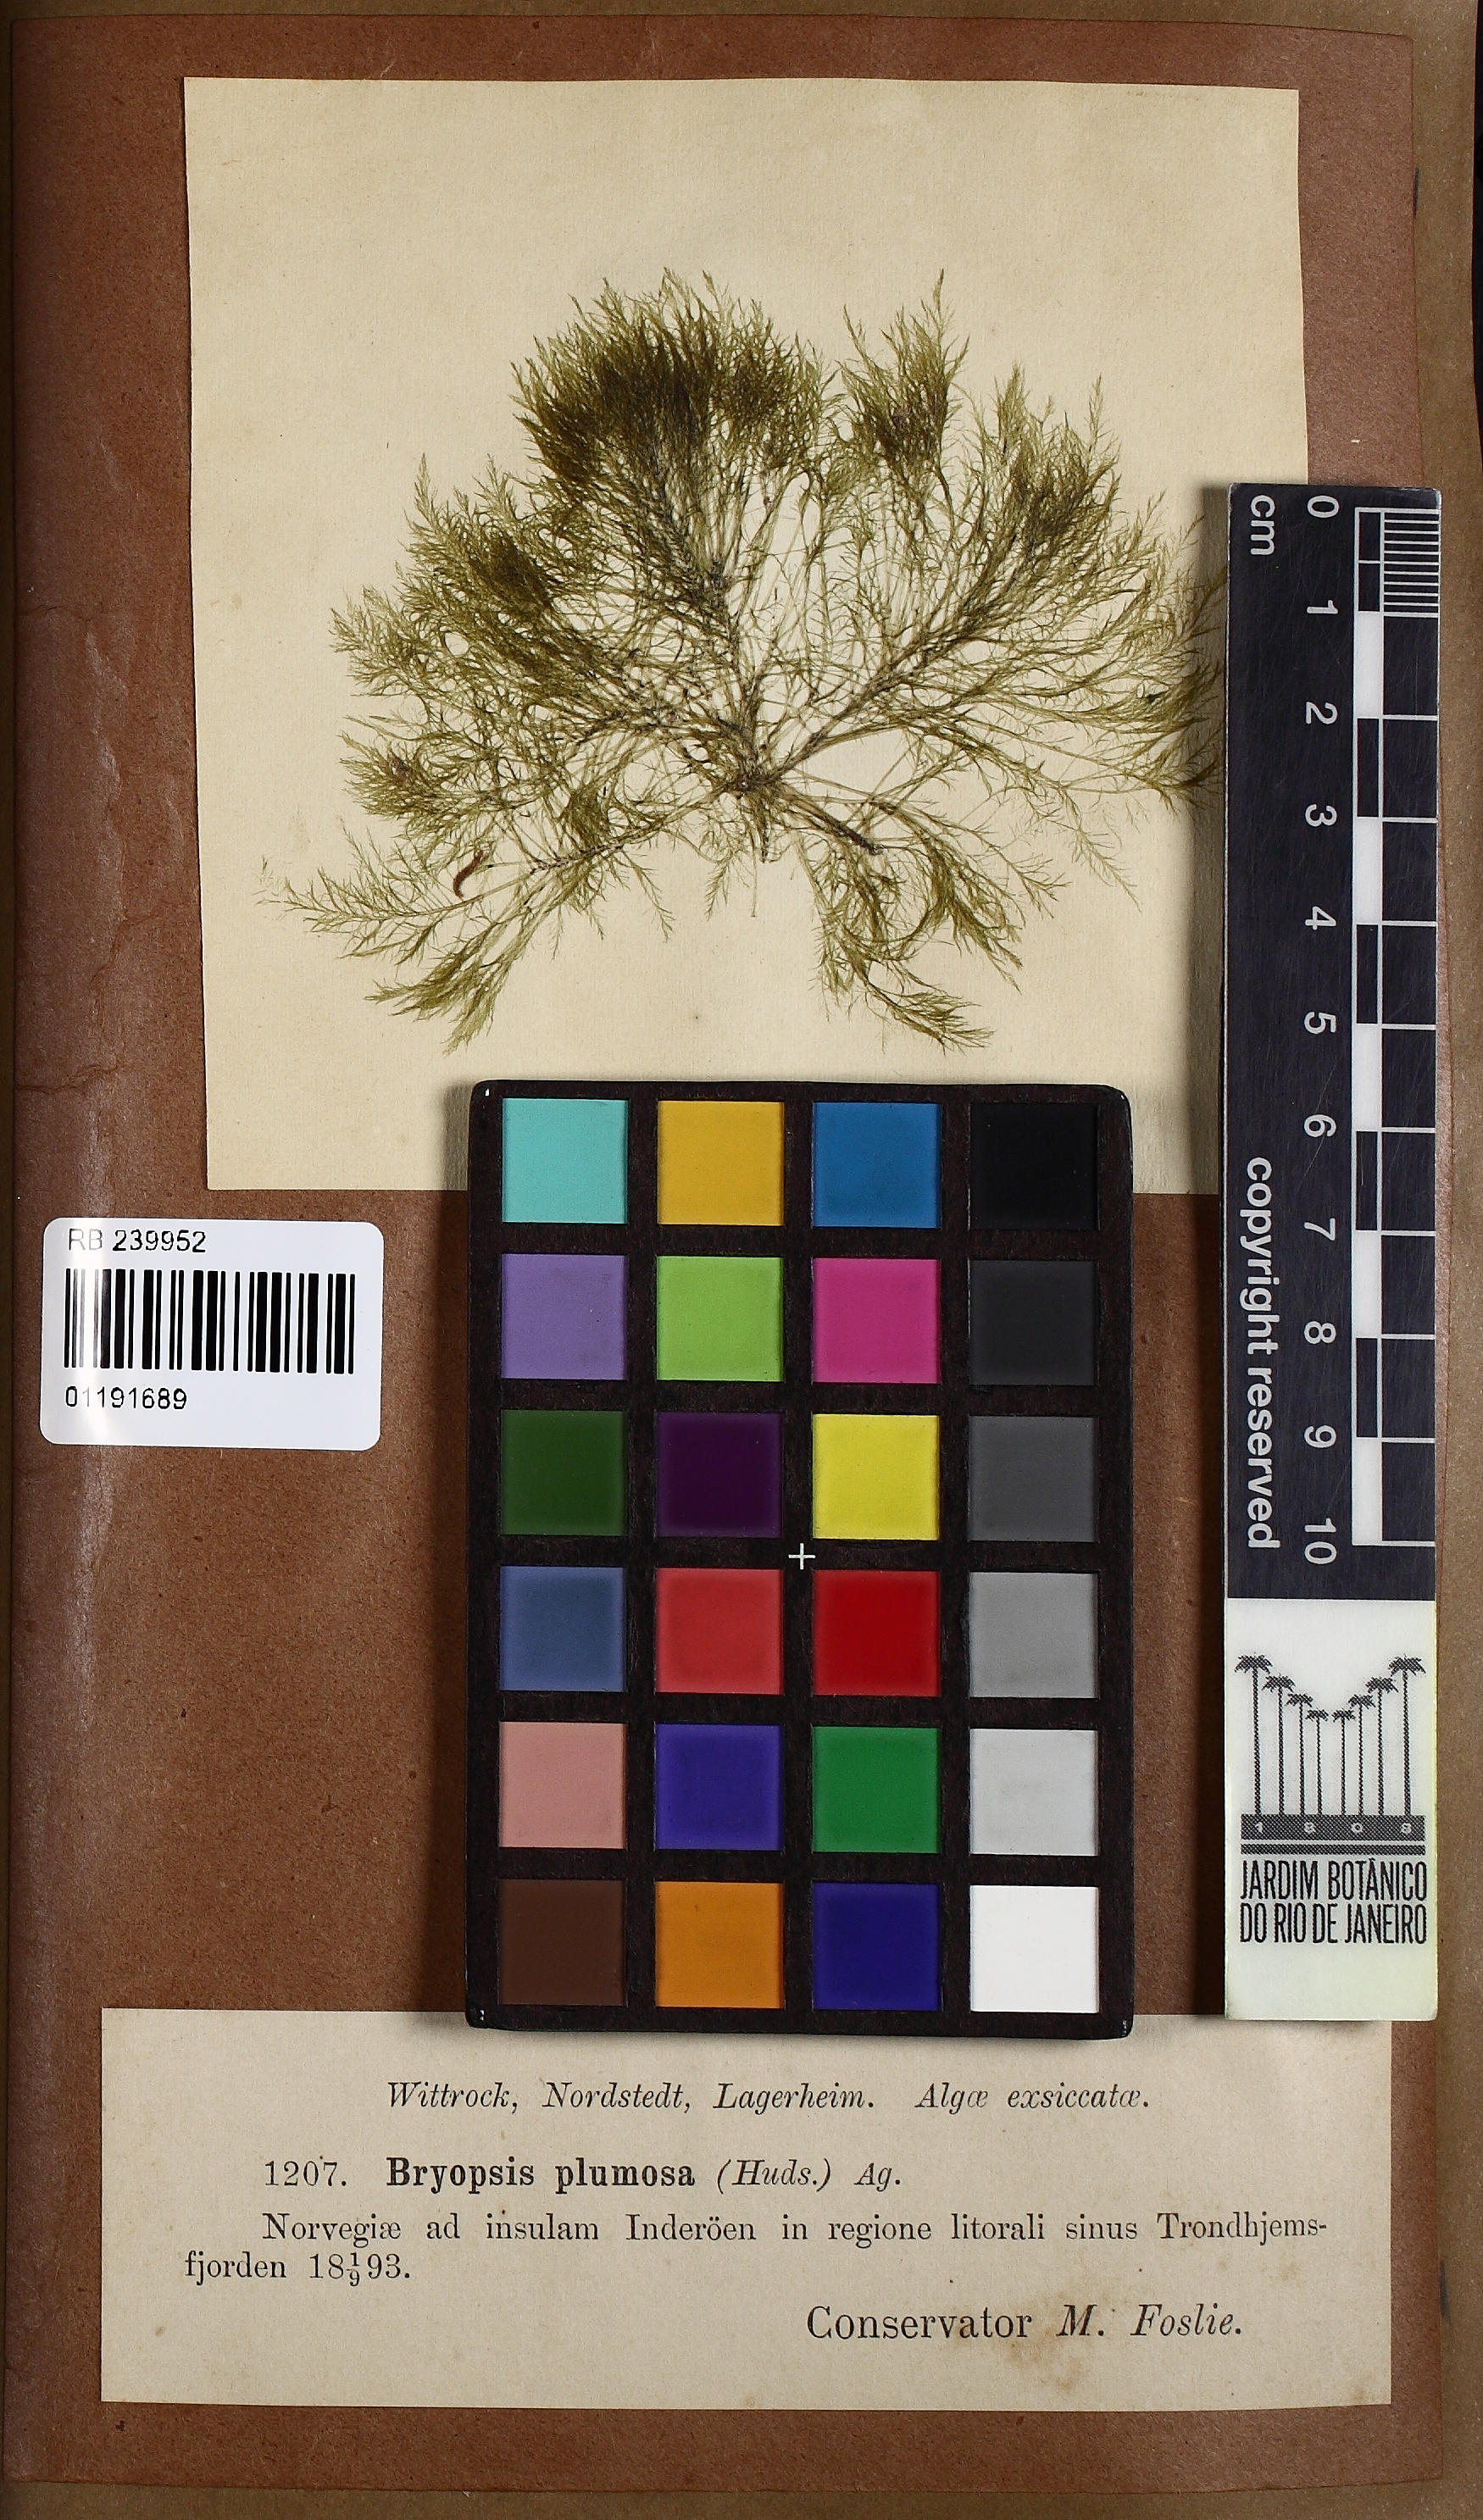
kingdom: Plantae
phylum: Chlorophyta
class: Ulvophyceae
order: Bryopsidales
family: Bryopsidaceae
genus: Bryopsis
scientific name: Bryopsis plumosa
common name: Hen pen
